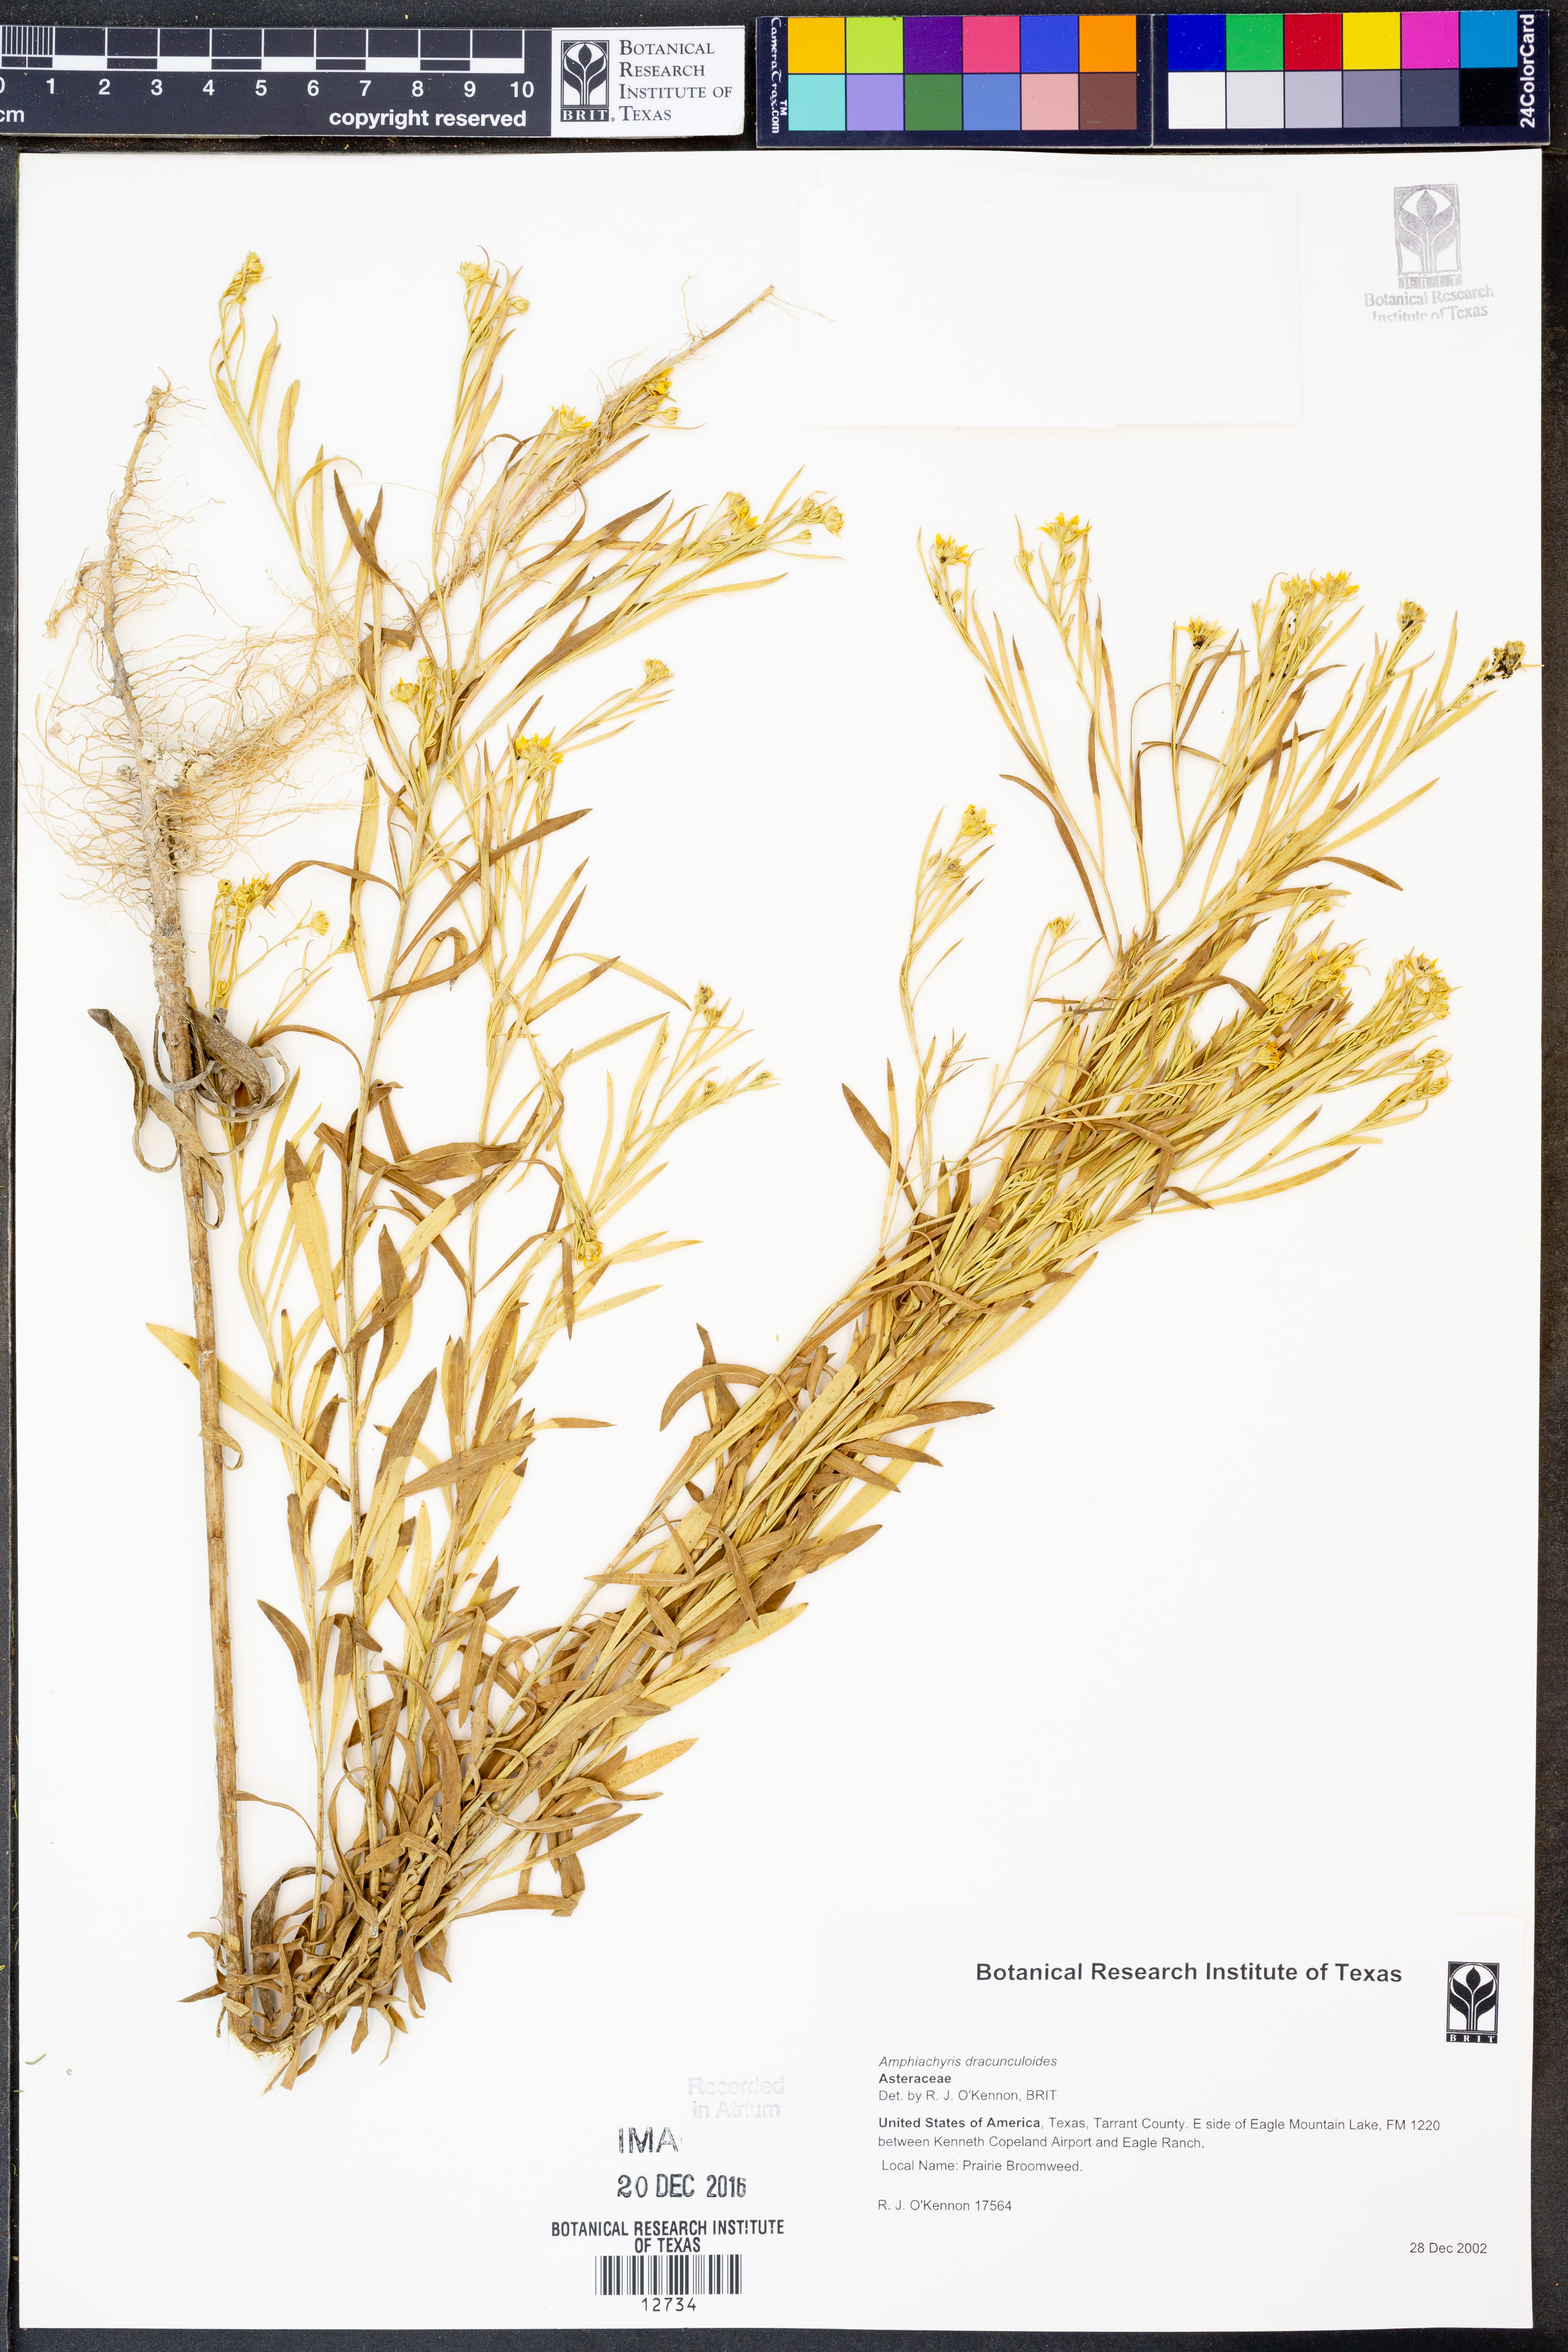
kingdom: Plantae
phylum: Tracheophyta
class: Magnoliopsida
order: Asterales
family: Asteraceae
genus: Amphiachyris
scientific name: Amphiachyris dracunculoides
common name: Broomweed
